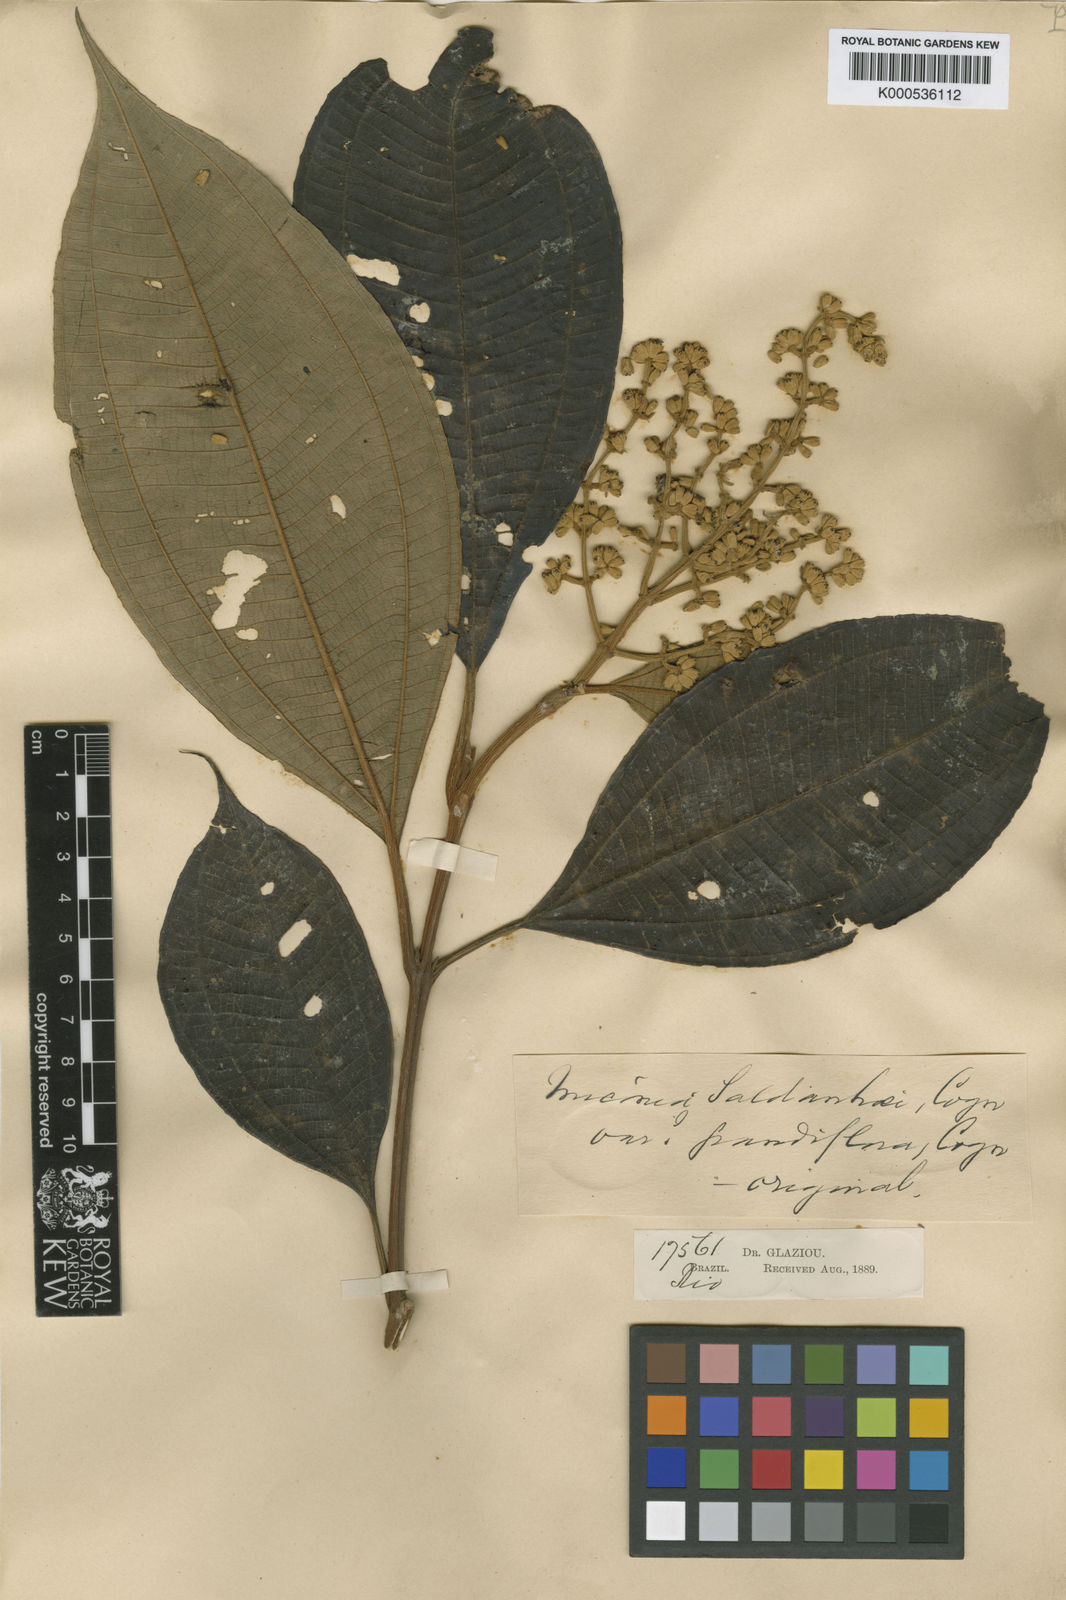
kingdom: Plantae
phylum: Tracheophyta
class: Magnoliopsida
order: Myrtales
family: Melastomataceae
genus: Miconia
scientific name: Miconia fasciculata
